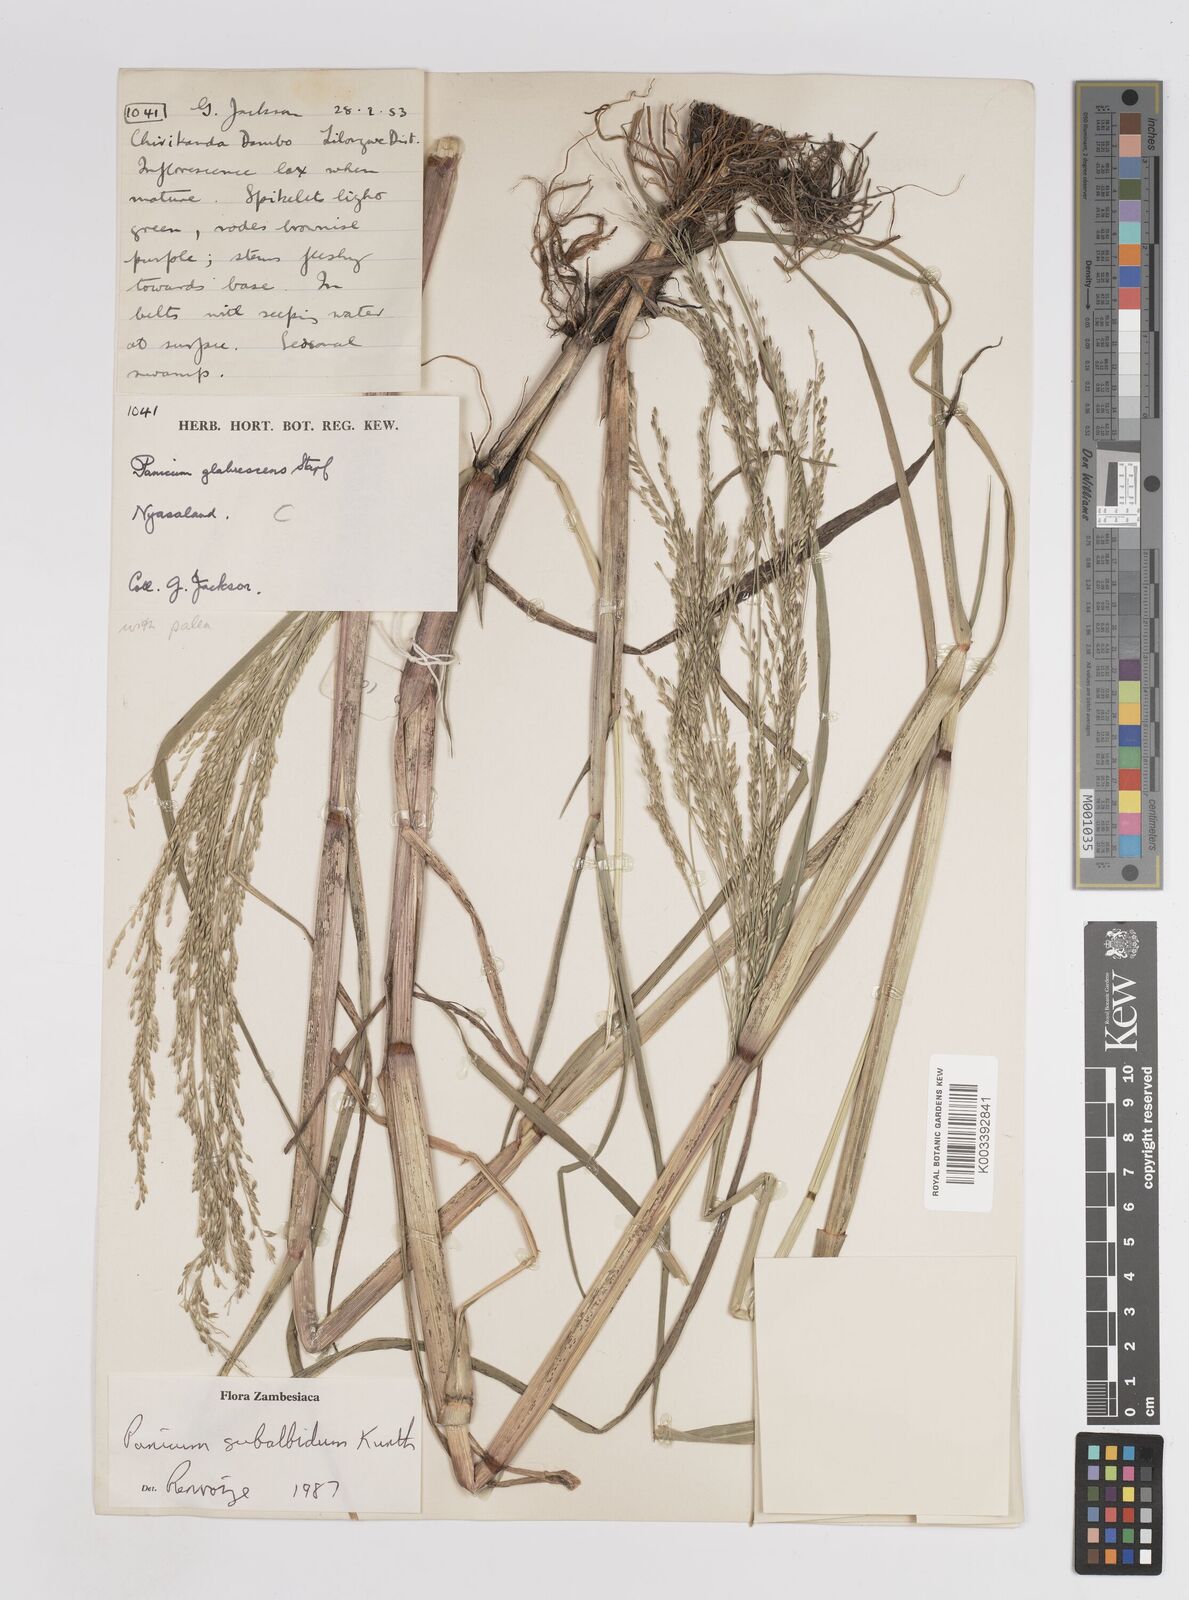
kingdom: Plantae
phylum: Tracheophyta
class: Liliopsida
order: Poales
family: Poaceae
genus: Panicum
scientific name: Panicum subalbidum
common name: Elbow buffalo grass
